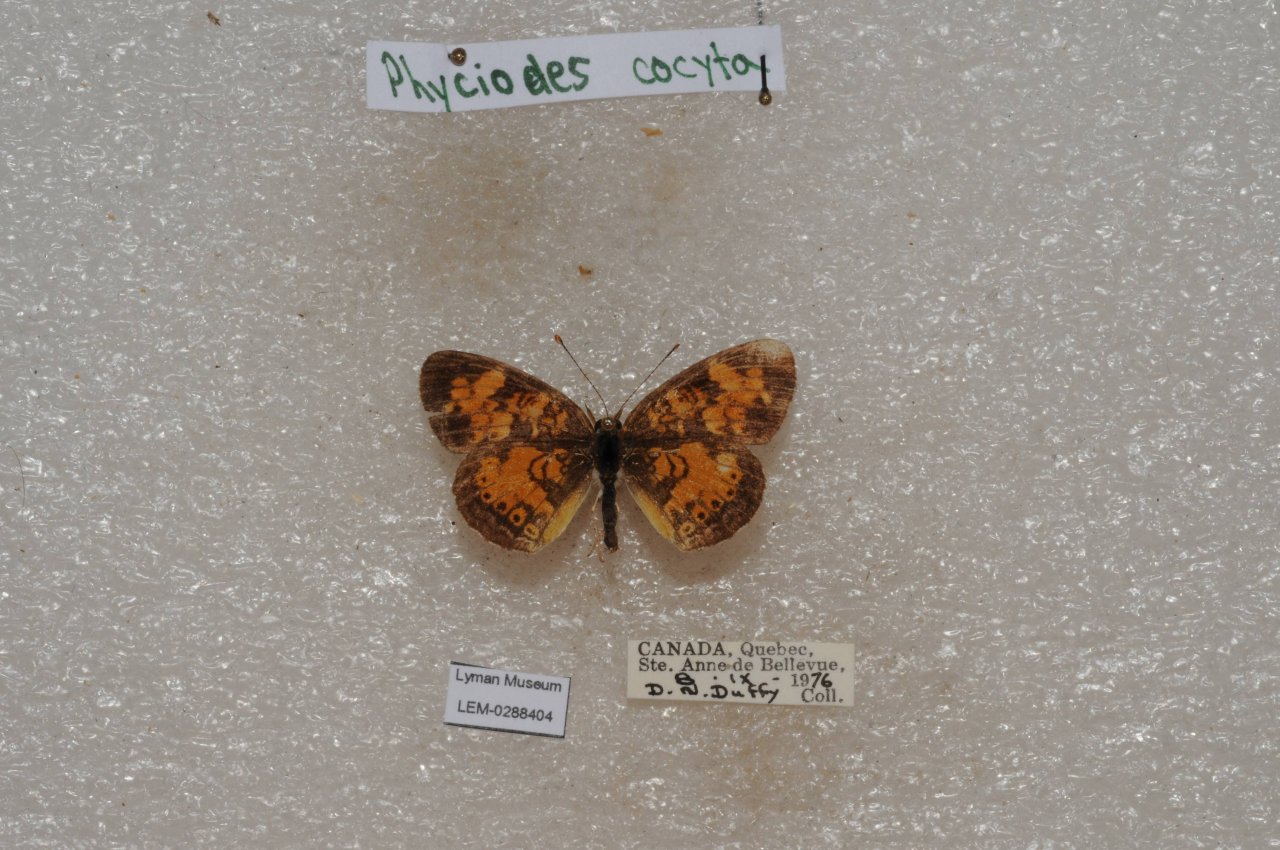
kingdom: Animalia
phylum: Arthropoda
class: Insecta
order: Lepidoptera
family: Nymphalidae
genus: Phyciodes
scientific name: Phyciodes tharos
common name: Northern Crescent
